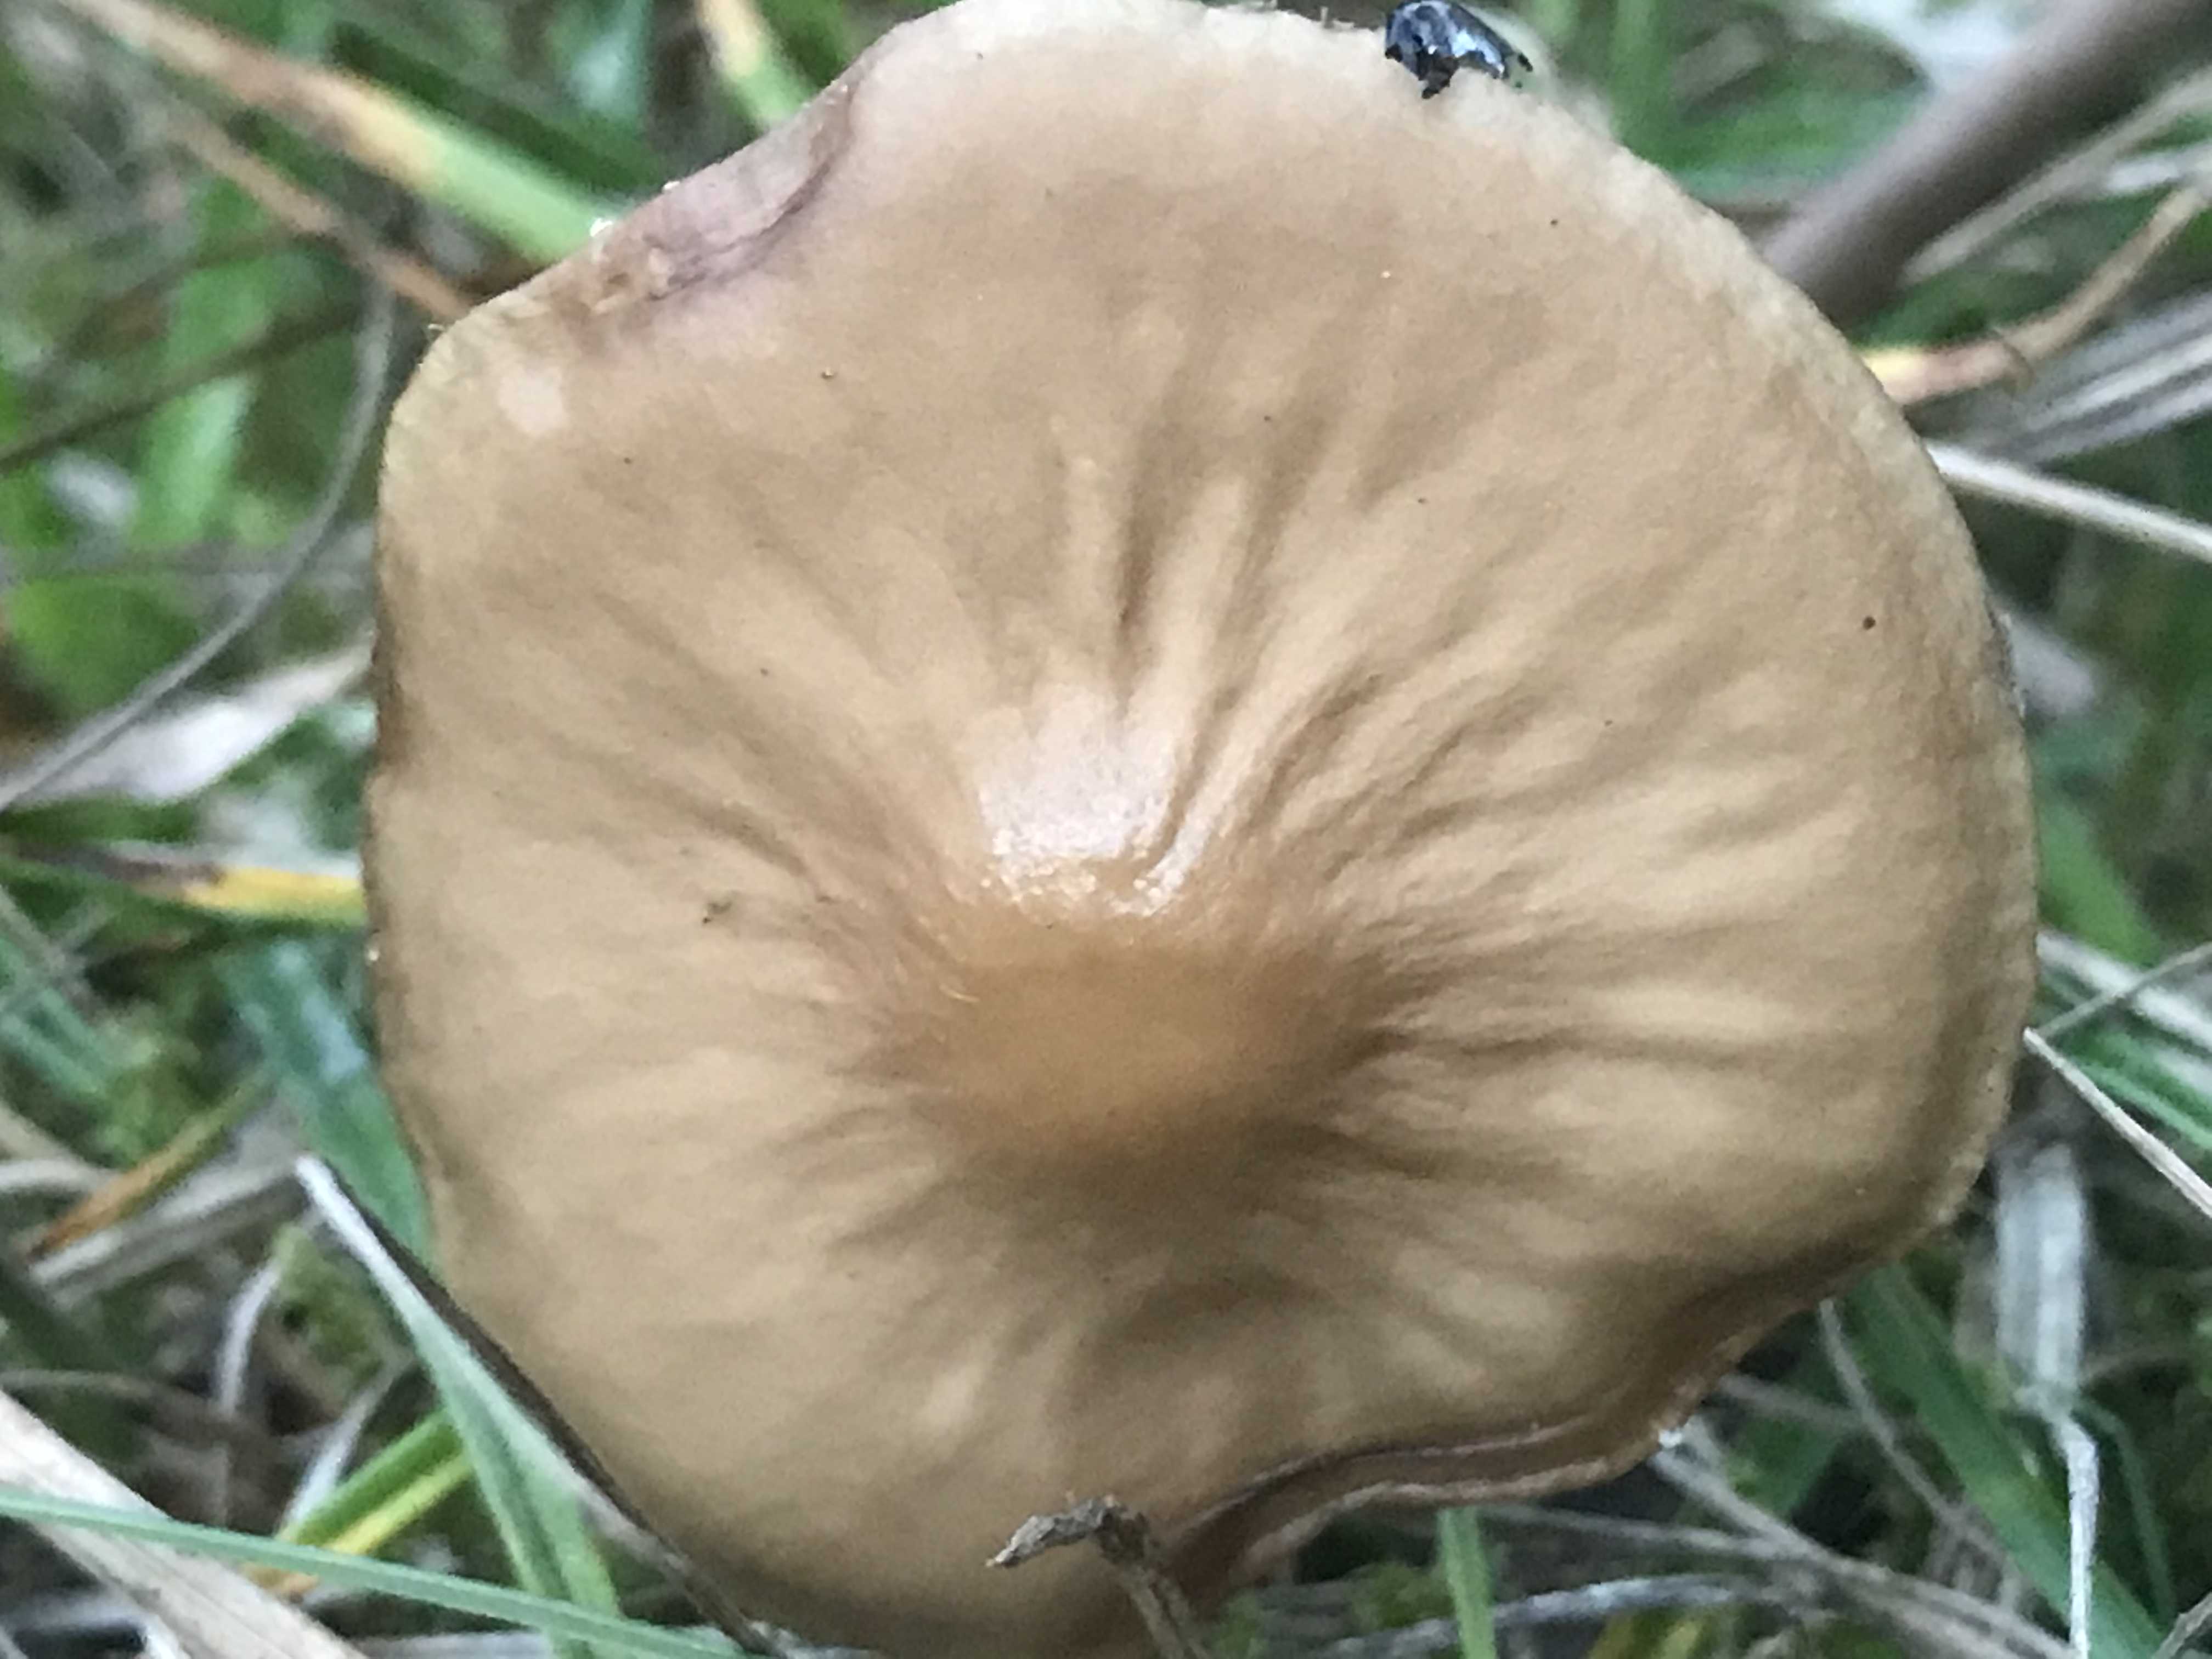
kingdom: Fungi
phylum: Basidiomycota
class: Agaricomycetes
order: Agaricales
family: Physalacriaceae
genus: Hymenopellis
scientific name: Hymenopellis radicata
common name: almindelig pælerodshat
